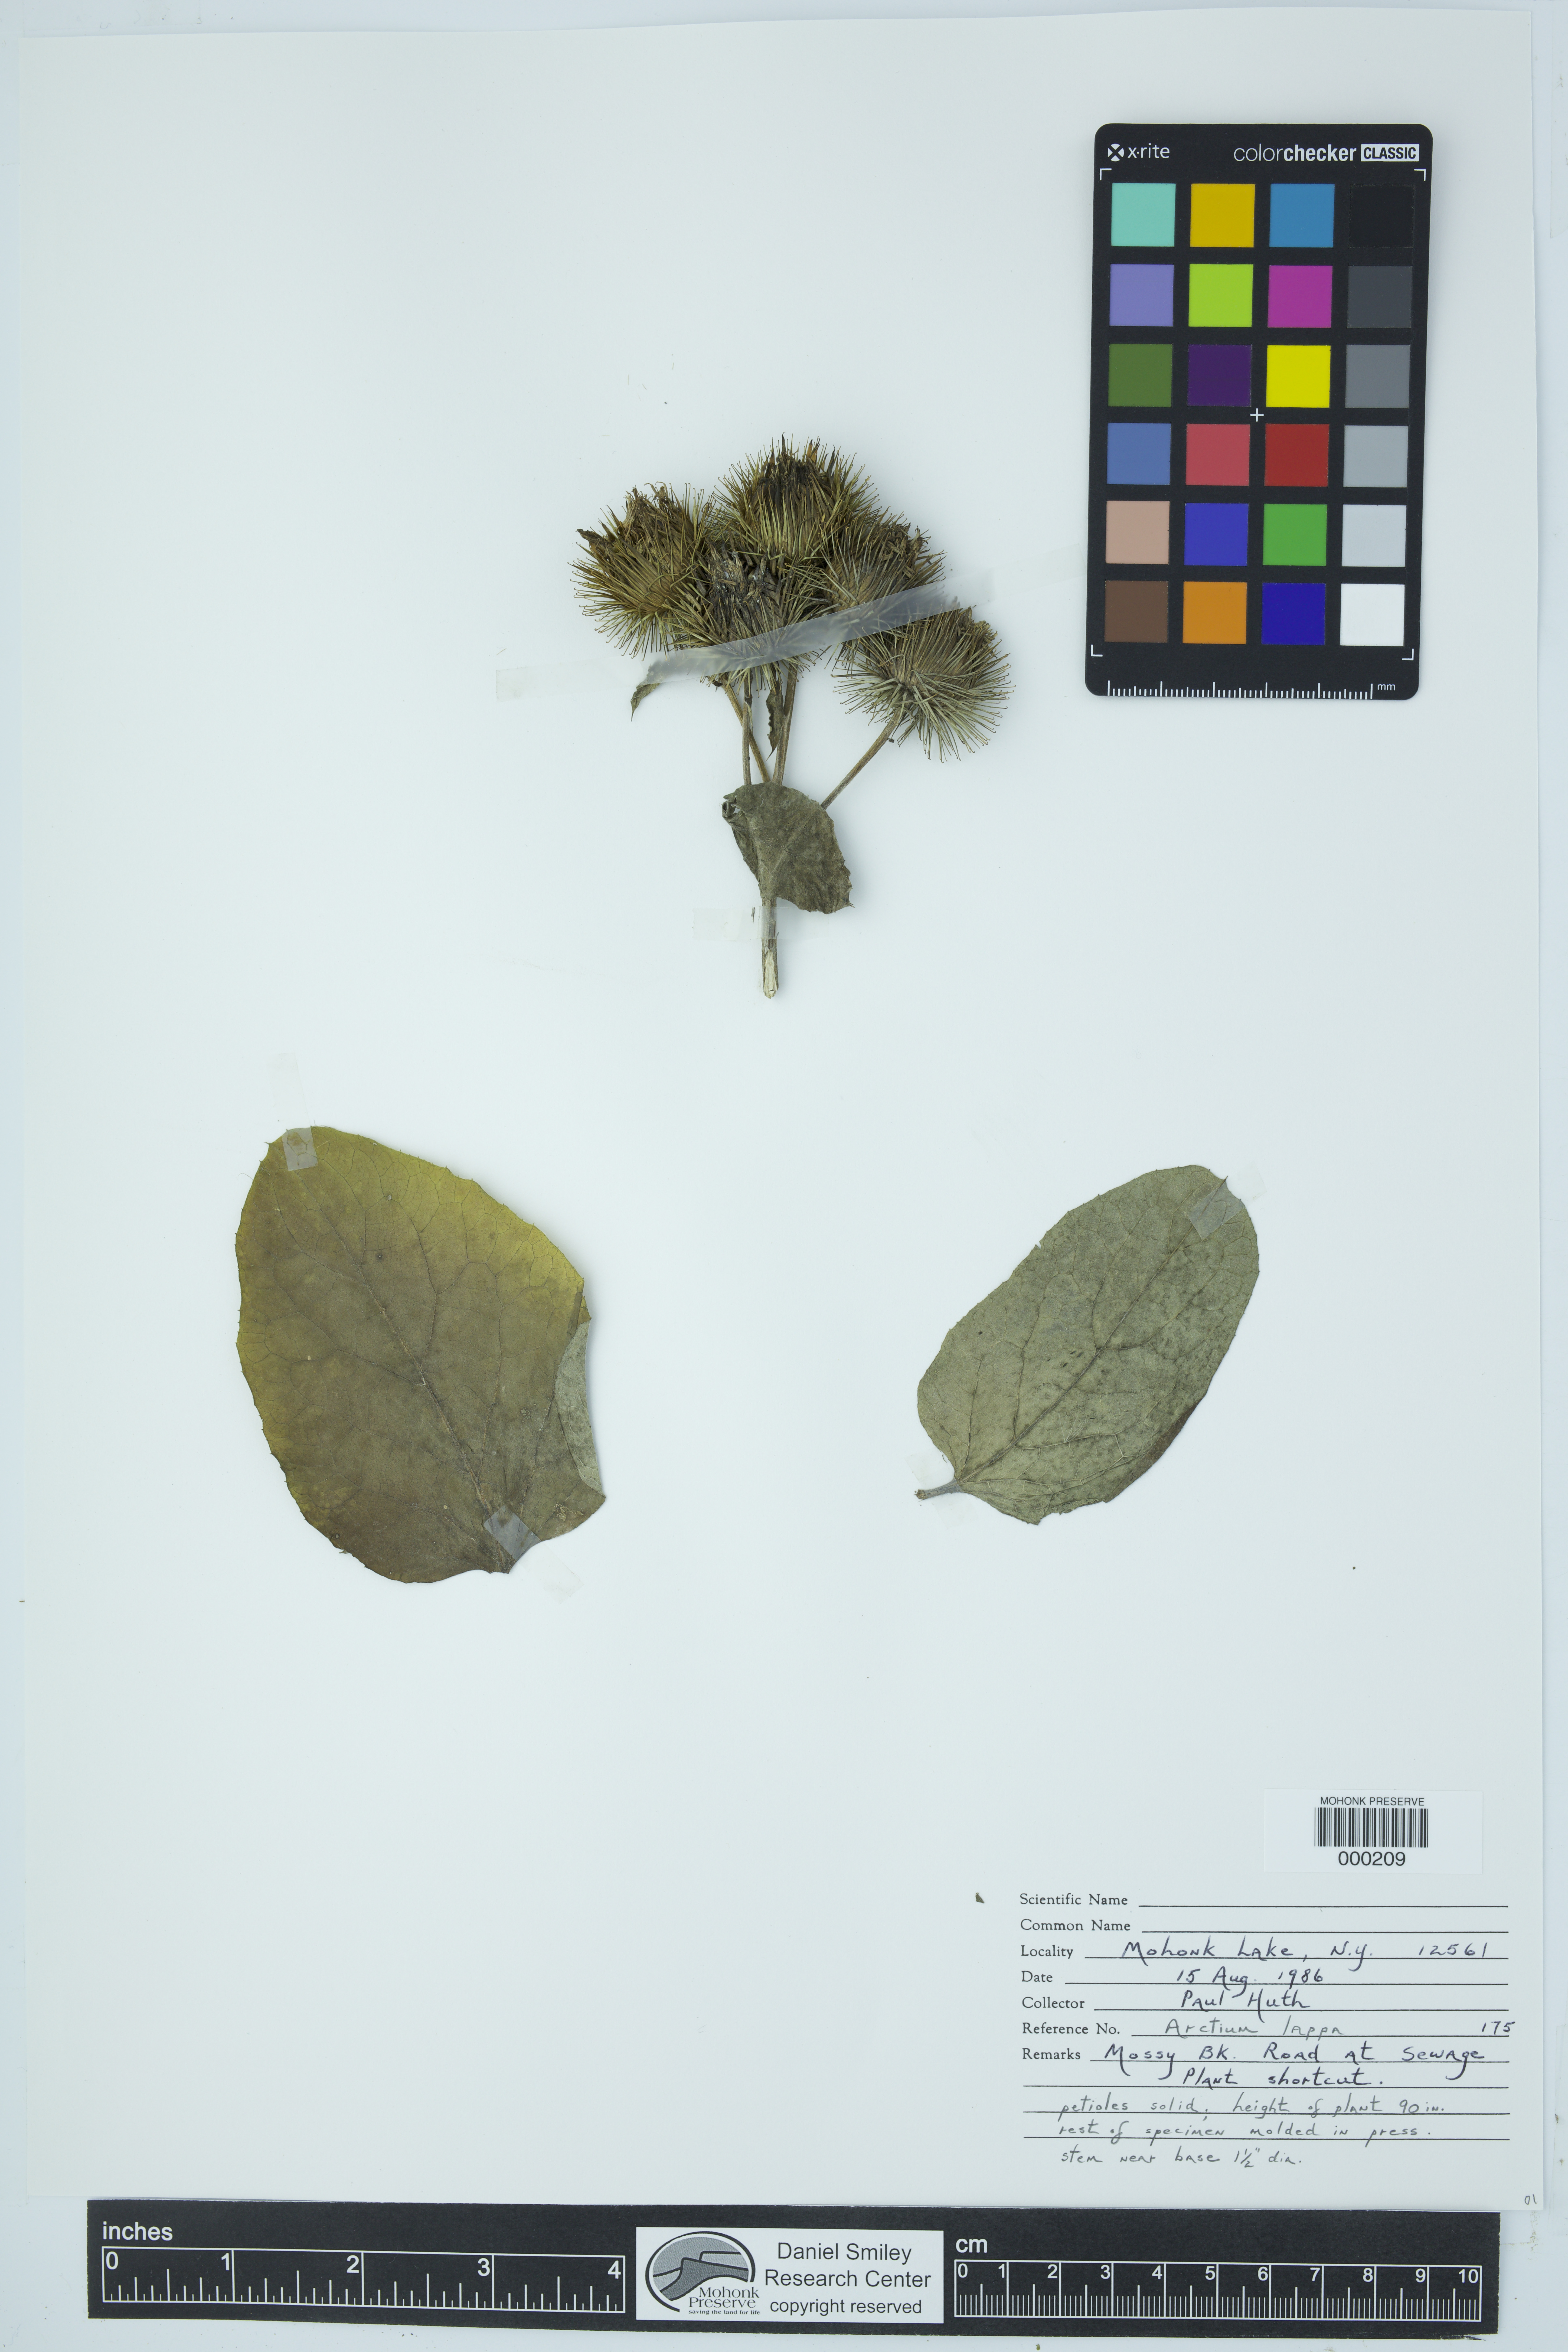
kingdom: Plantae
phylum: Tracheophyta
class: Magnoliopsida
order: Asterales
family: Asteraceae
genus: Arctium
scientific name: Arctium lappa
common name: Greater burdock
